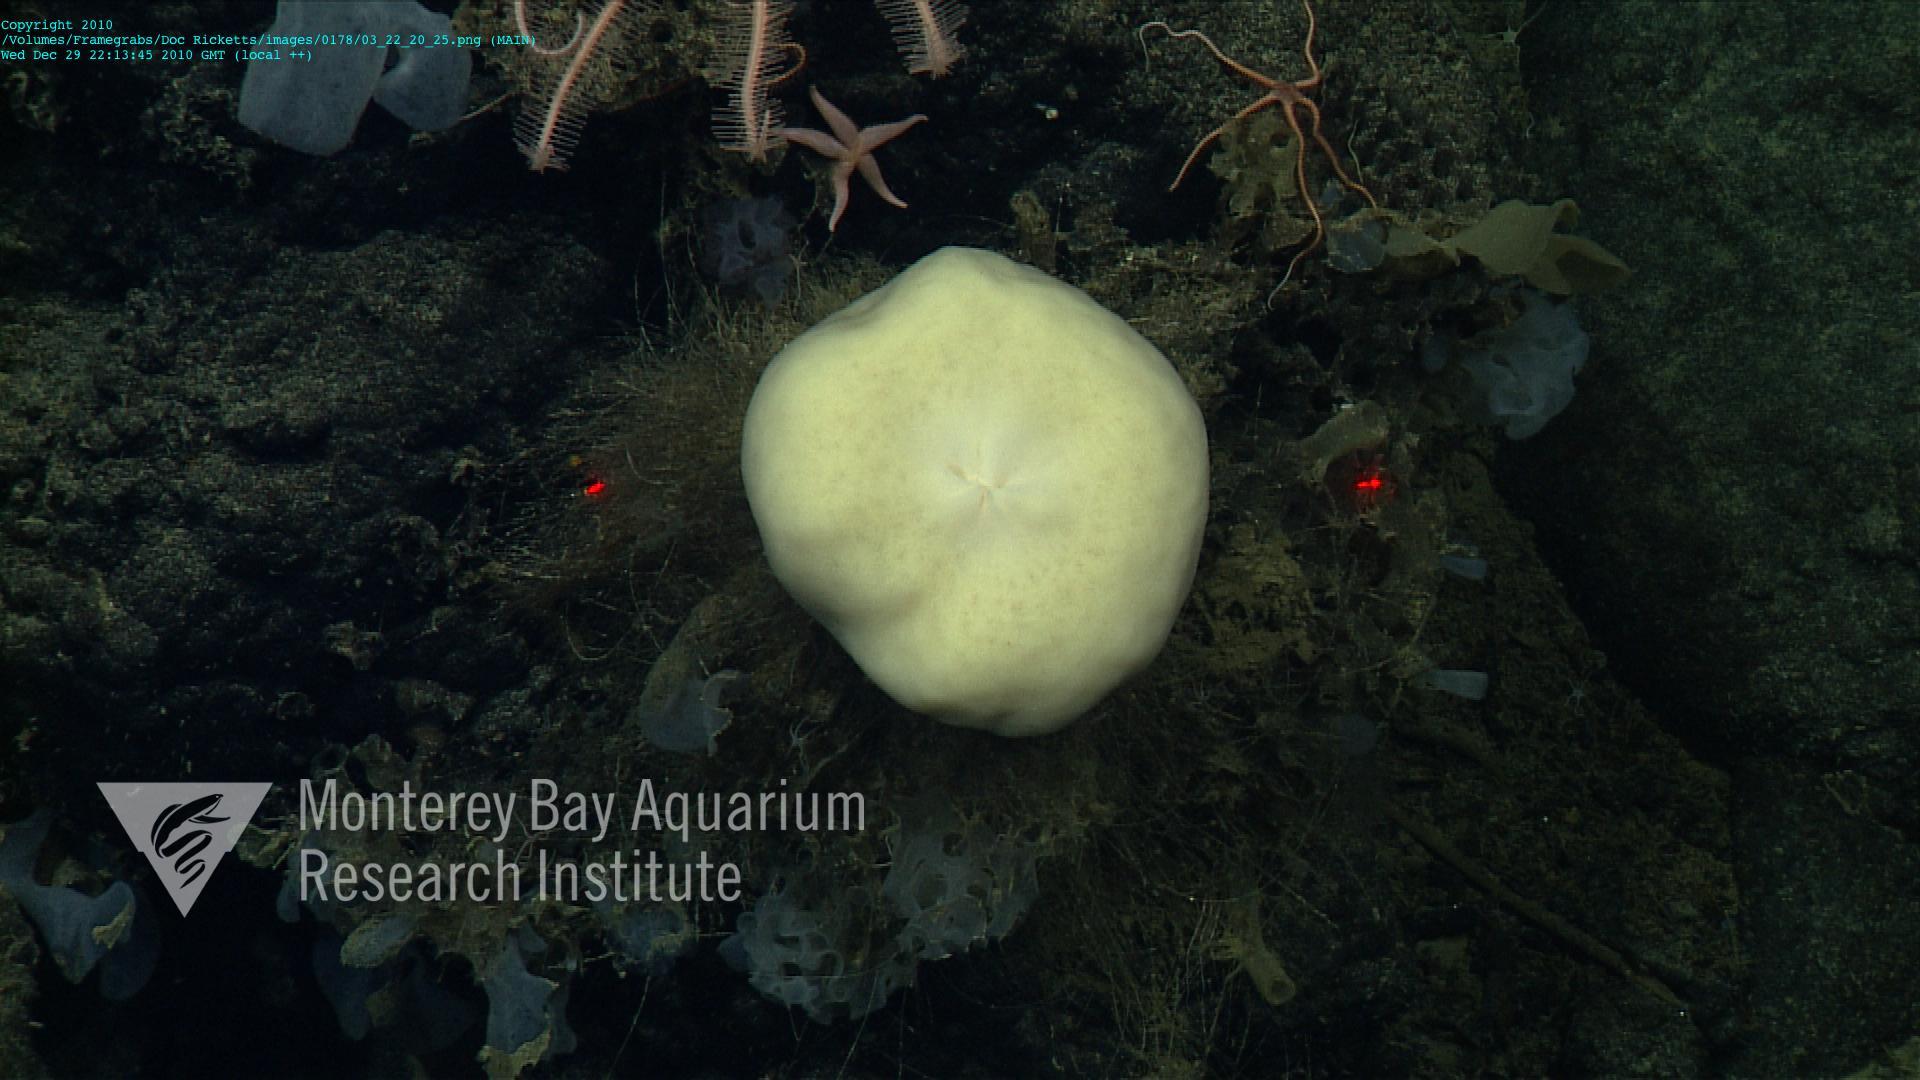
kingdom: Animalia
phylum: Porifera
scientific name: Porifera
